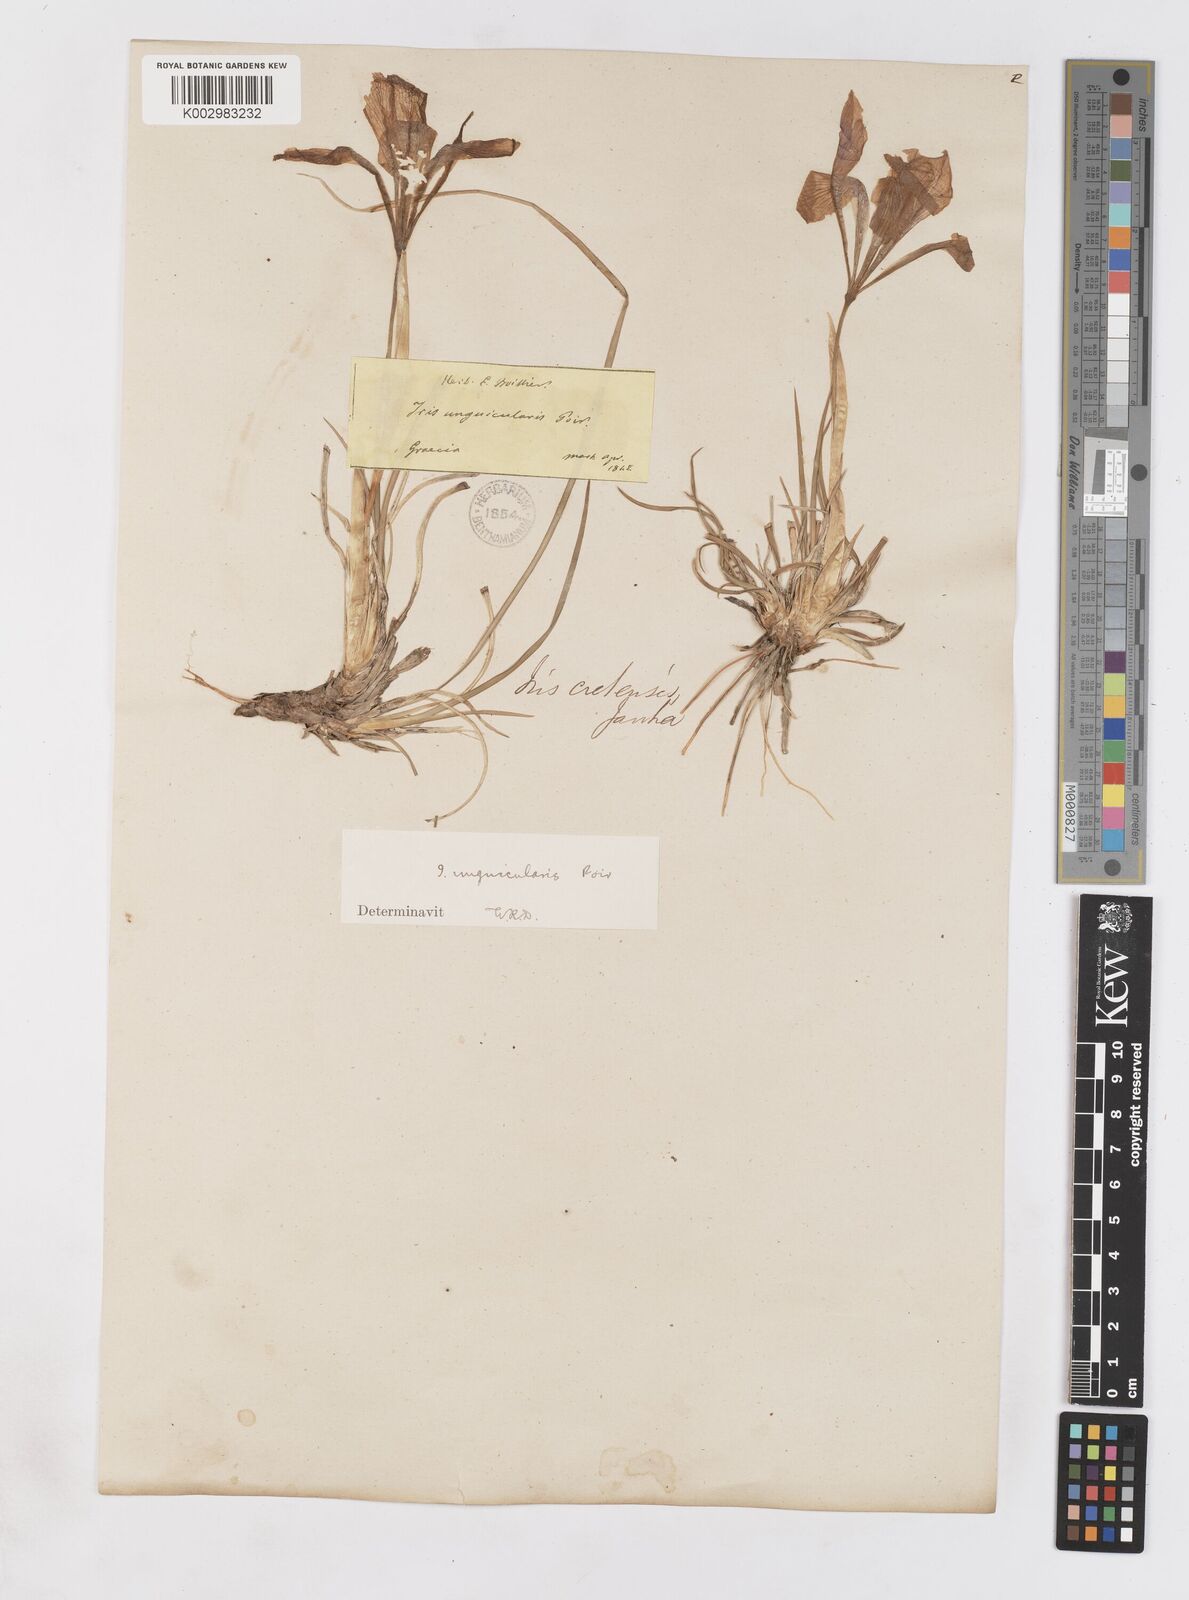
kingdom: Plantae
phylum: Tracheophyta
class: Liliopsida
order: Asparagales
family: Iridaceae
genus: Iris
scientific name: Iris unguicularis
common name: Algerian iris
